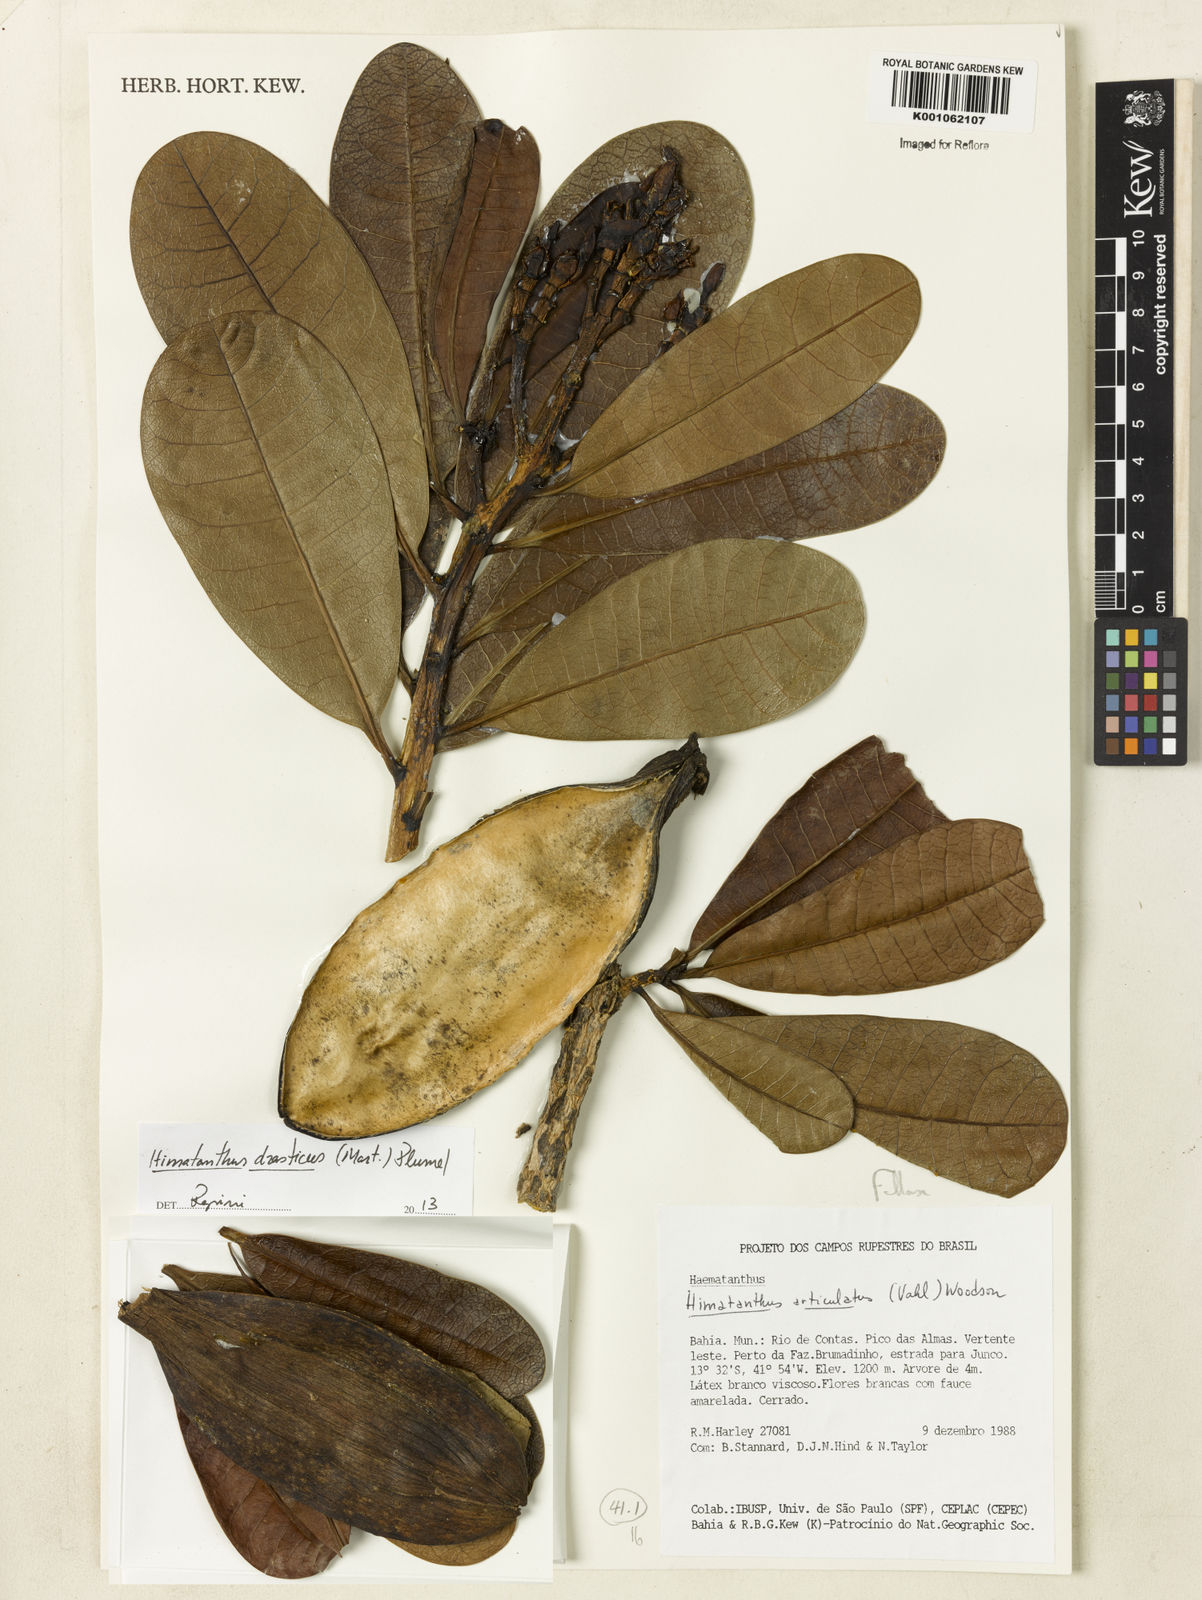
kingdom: Plantae
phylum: Tracheophyta
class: Magnoliopsida
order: Gentianales
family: Apocynaceae
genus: Himatanthus
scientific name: Himatanthus drasticus
